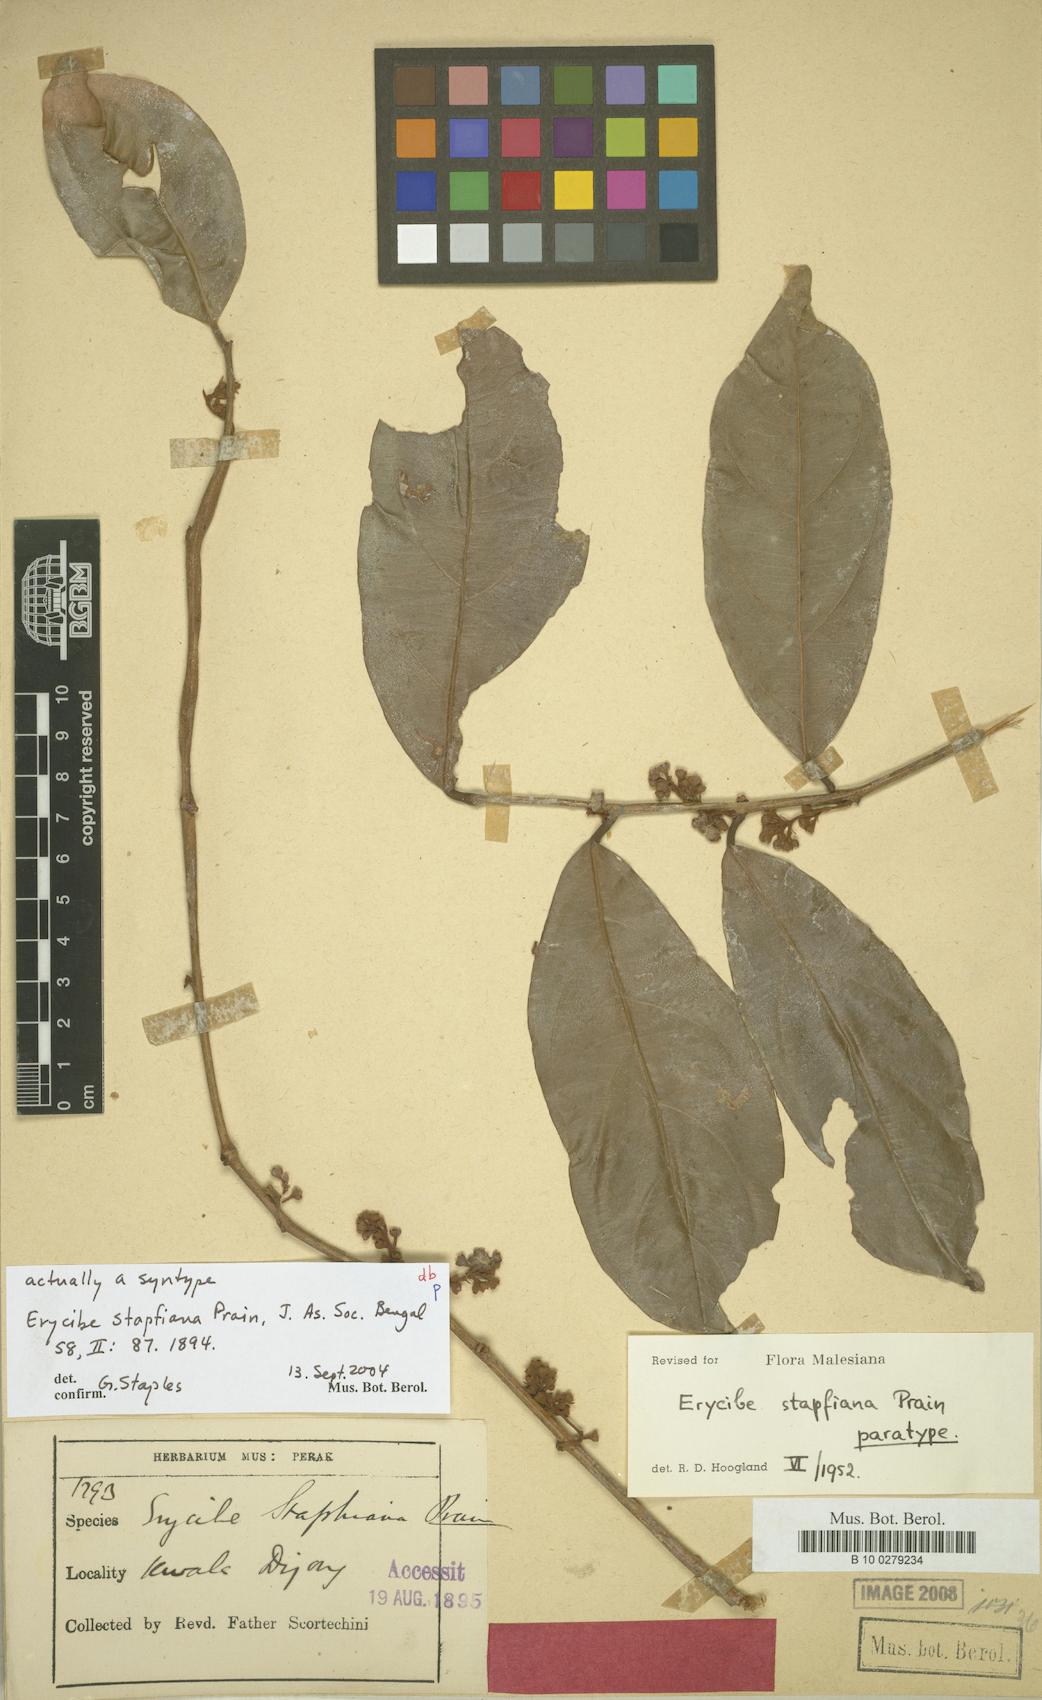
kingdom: Plantae
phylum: Tracheophyta
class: Magnoliopsida
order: Solanales
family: Convolvulaceae
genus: Erycibe
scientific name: Erycibe stapfiana
